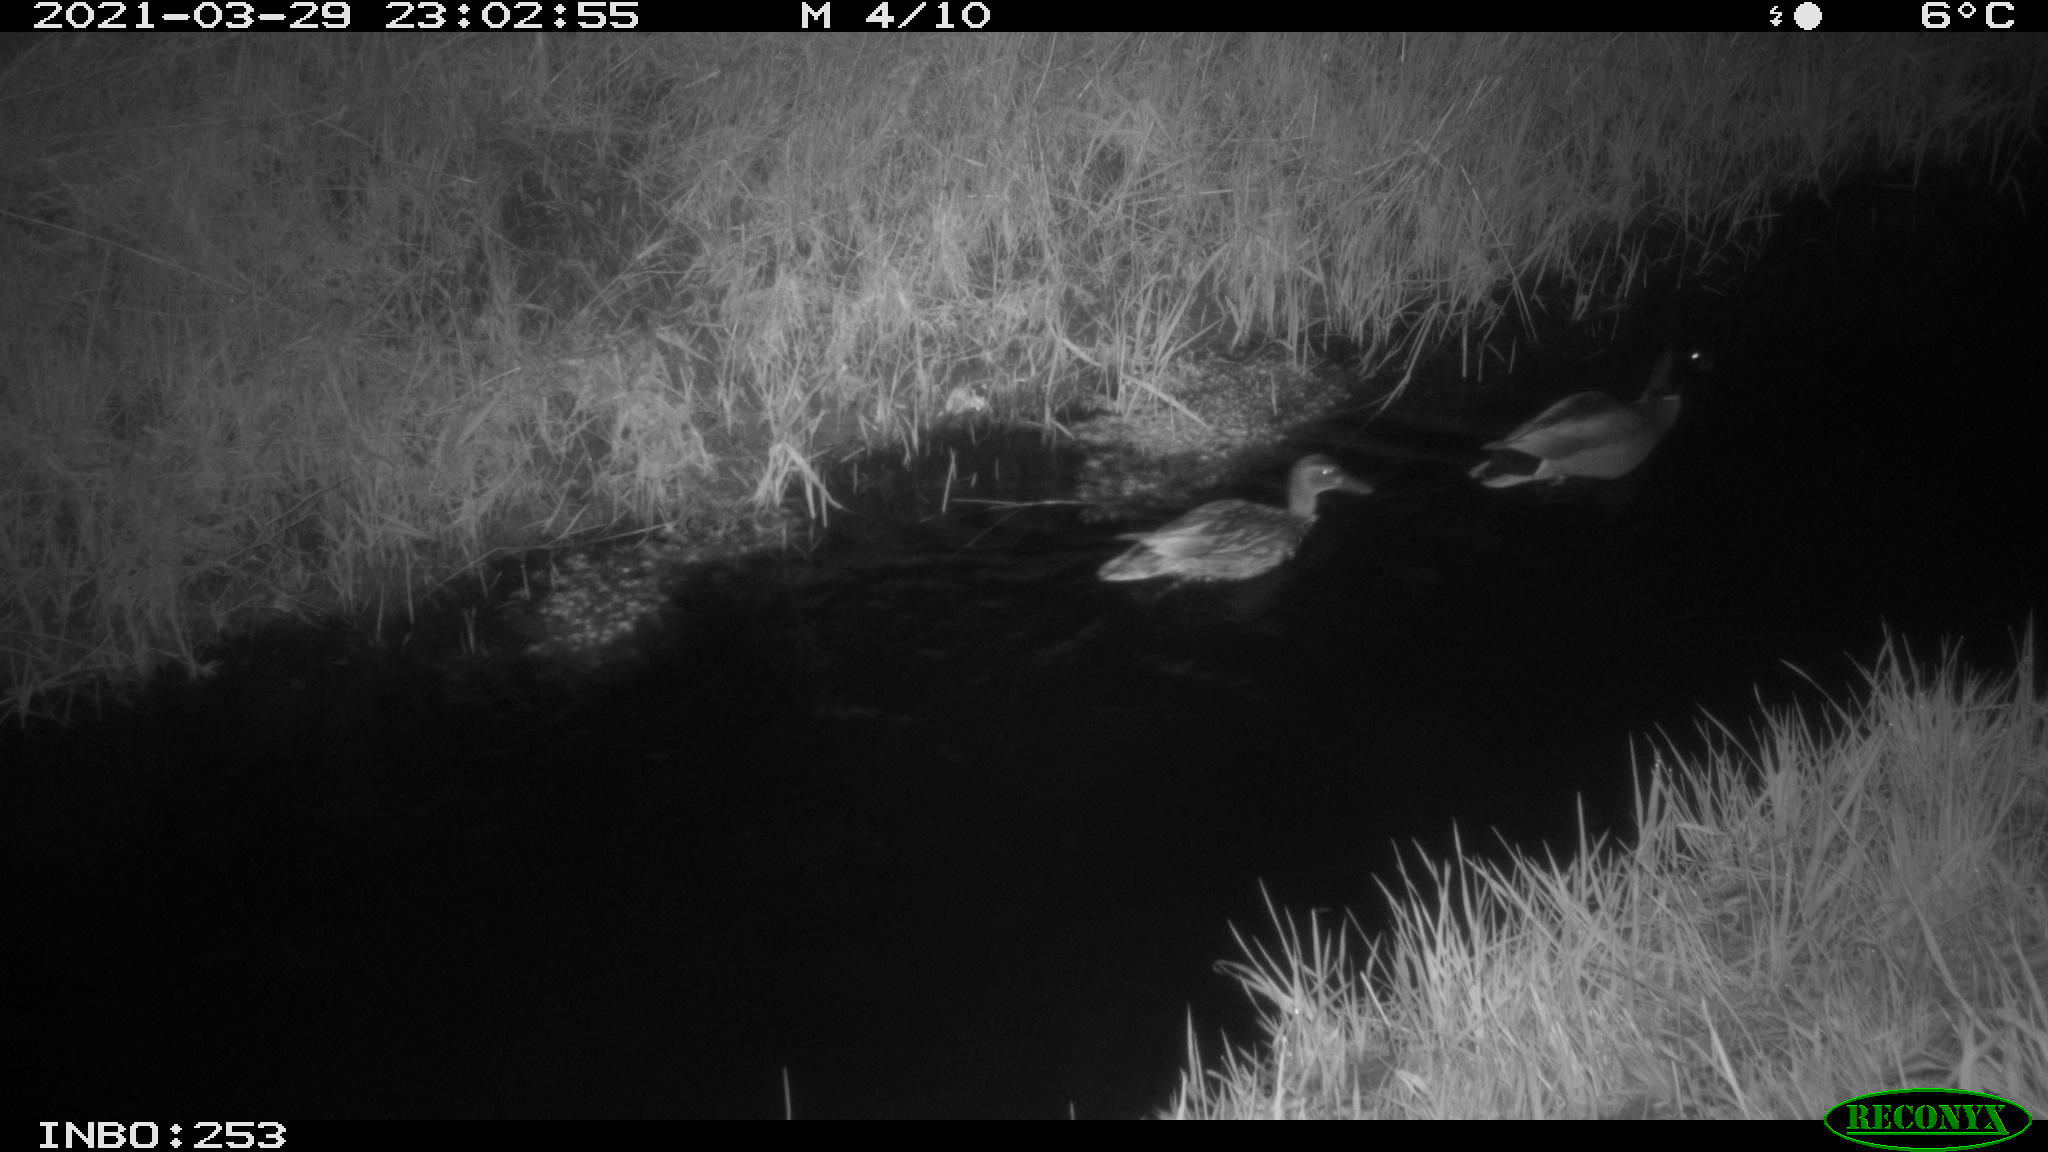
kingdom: Animalia
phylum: Chordata
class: Aves
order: Anseriformes
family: Anatidae
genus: Anas
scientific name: Anas platyrhynchos
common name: Mallard
